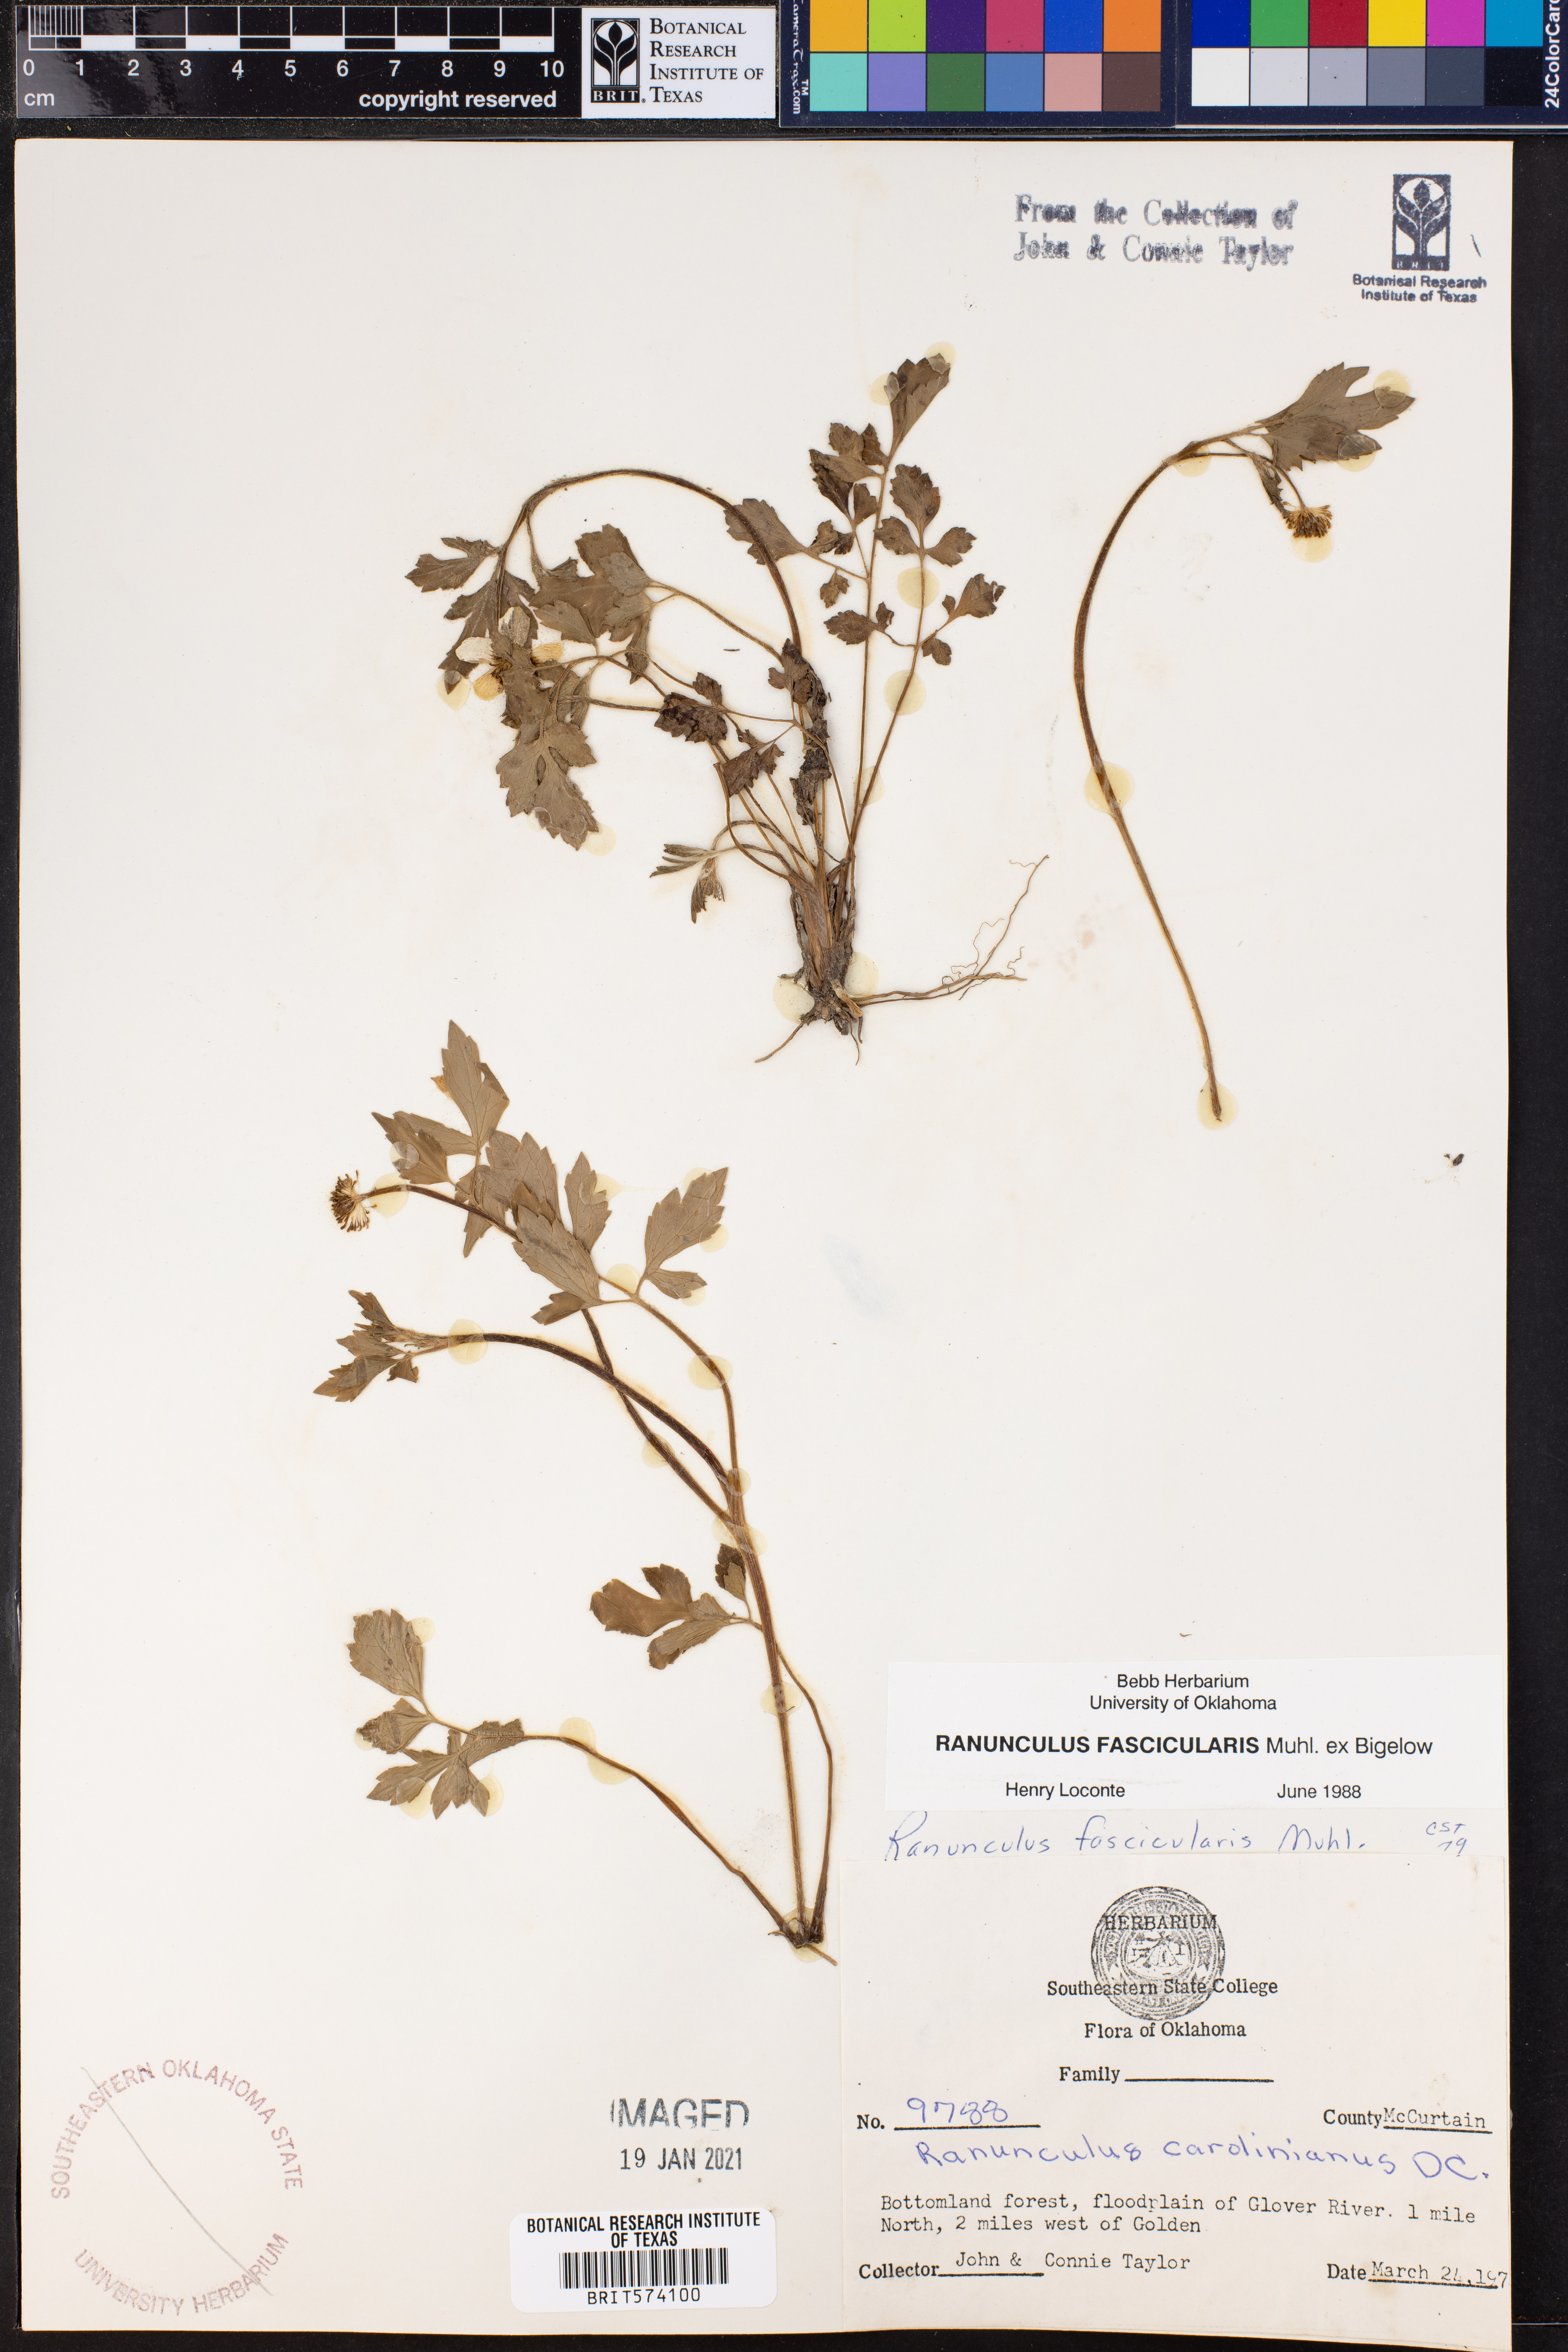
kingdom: Plantae
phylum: Tracheophyta
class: Magnoliopsida
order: Ranunculales
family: Ranunculaceae
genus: Ranunculus
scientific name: Ranunculus fascicularis
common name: Early buttercup
